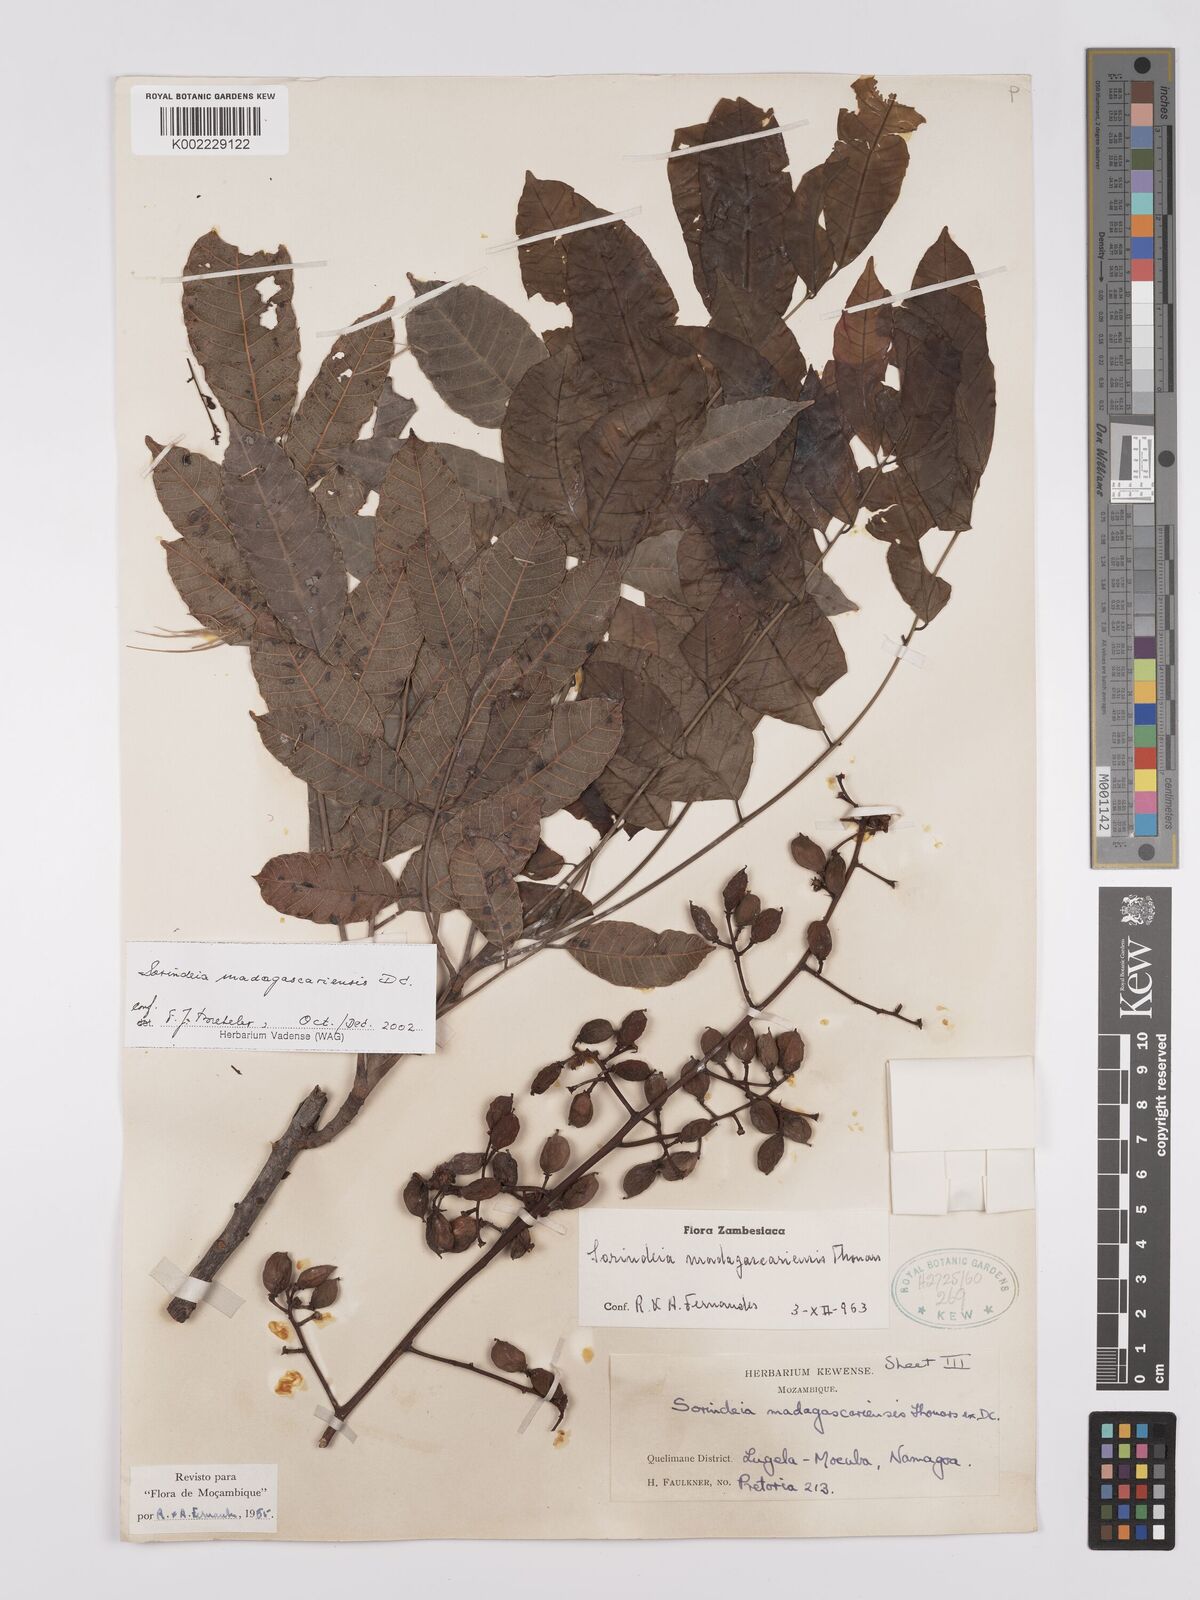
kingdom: Plantae
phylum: Tracheophyta
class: Magnoliopsida
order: Sapindales
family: Anacardiaceae
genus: Sorindeia
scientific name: Sorindeia madagascariensis
